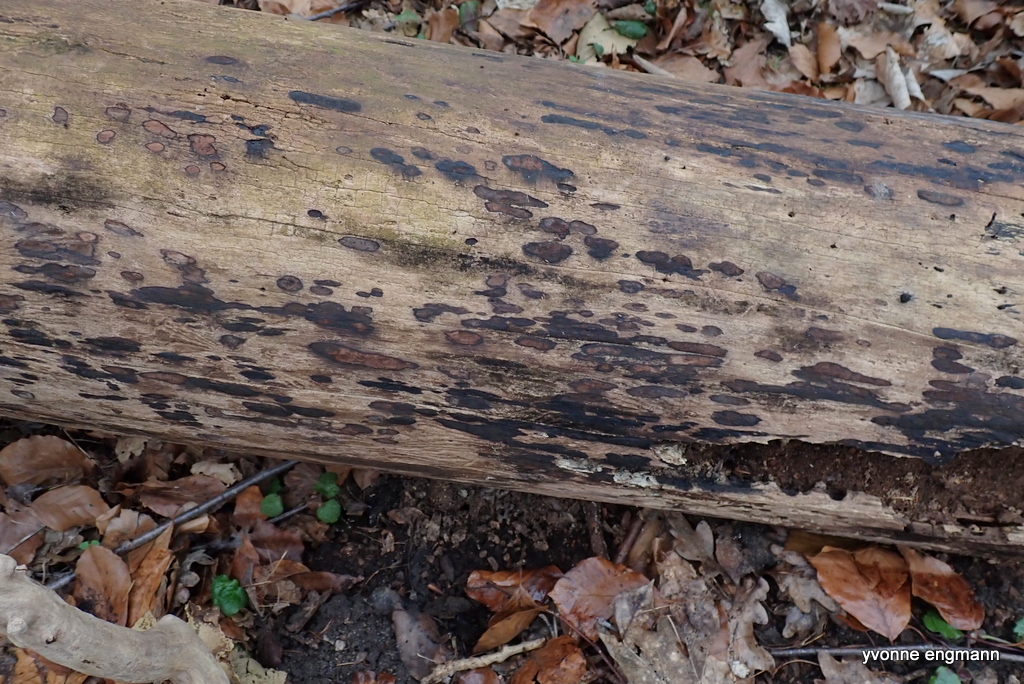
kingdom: Fungi
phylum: Ascomycota
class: Sordariomycetes
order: Xylariales
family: Hypoxylaceae
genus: Hypoxylon
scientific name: Hypoxylon petriniae
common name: nedsænket kulbær
